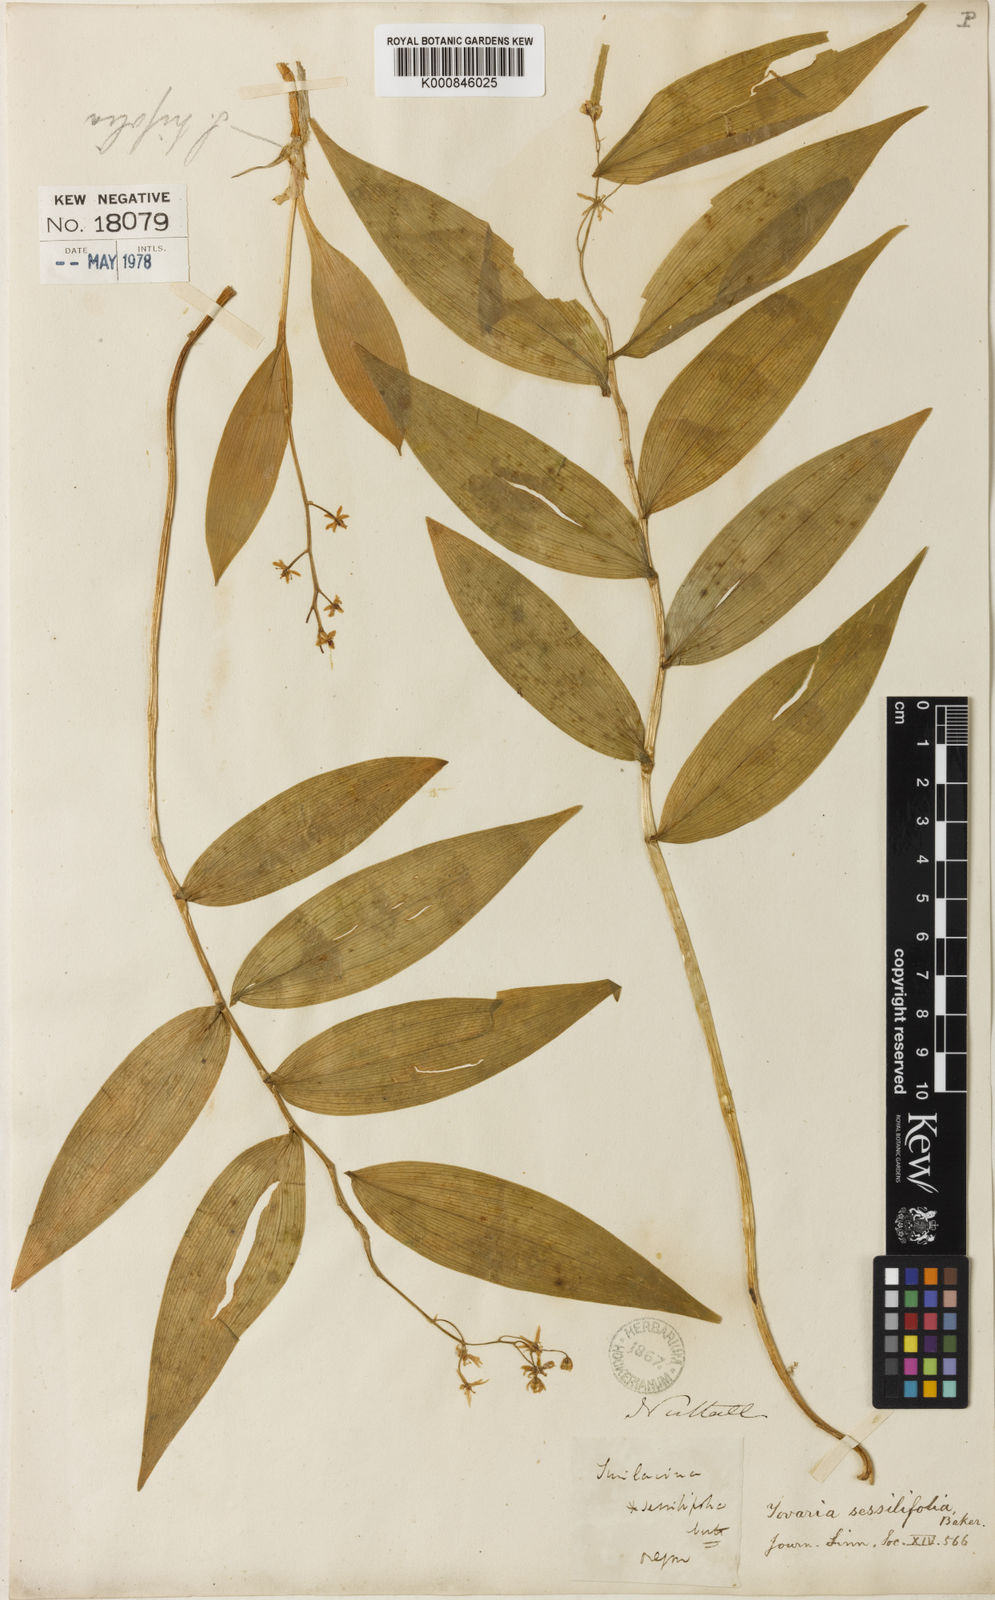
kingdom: Plantae
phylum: Tracheophyta
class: Liliopsida
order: Asparagales
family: Asparagaceae
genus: Maianthemum
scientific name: Maianthemum
